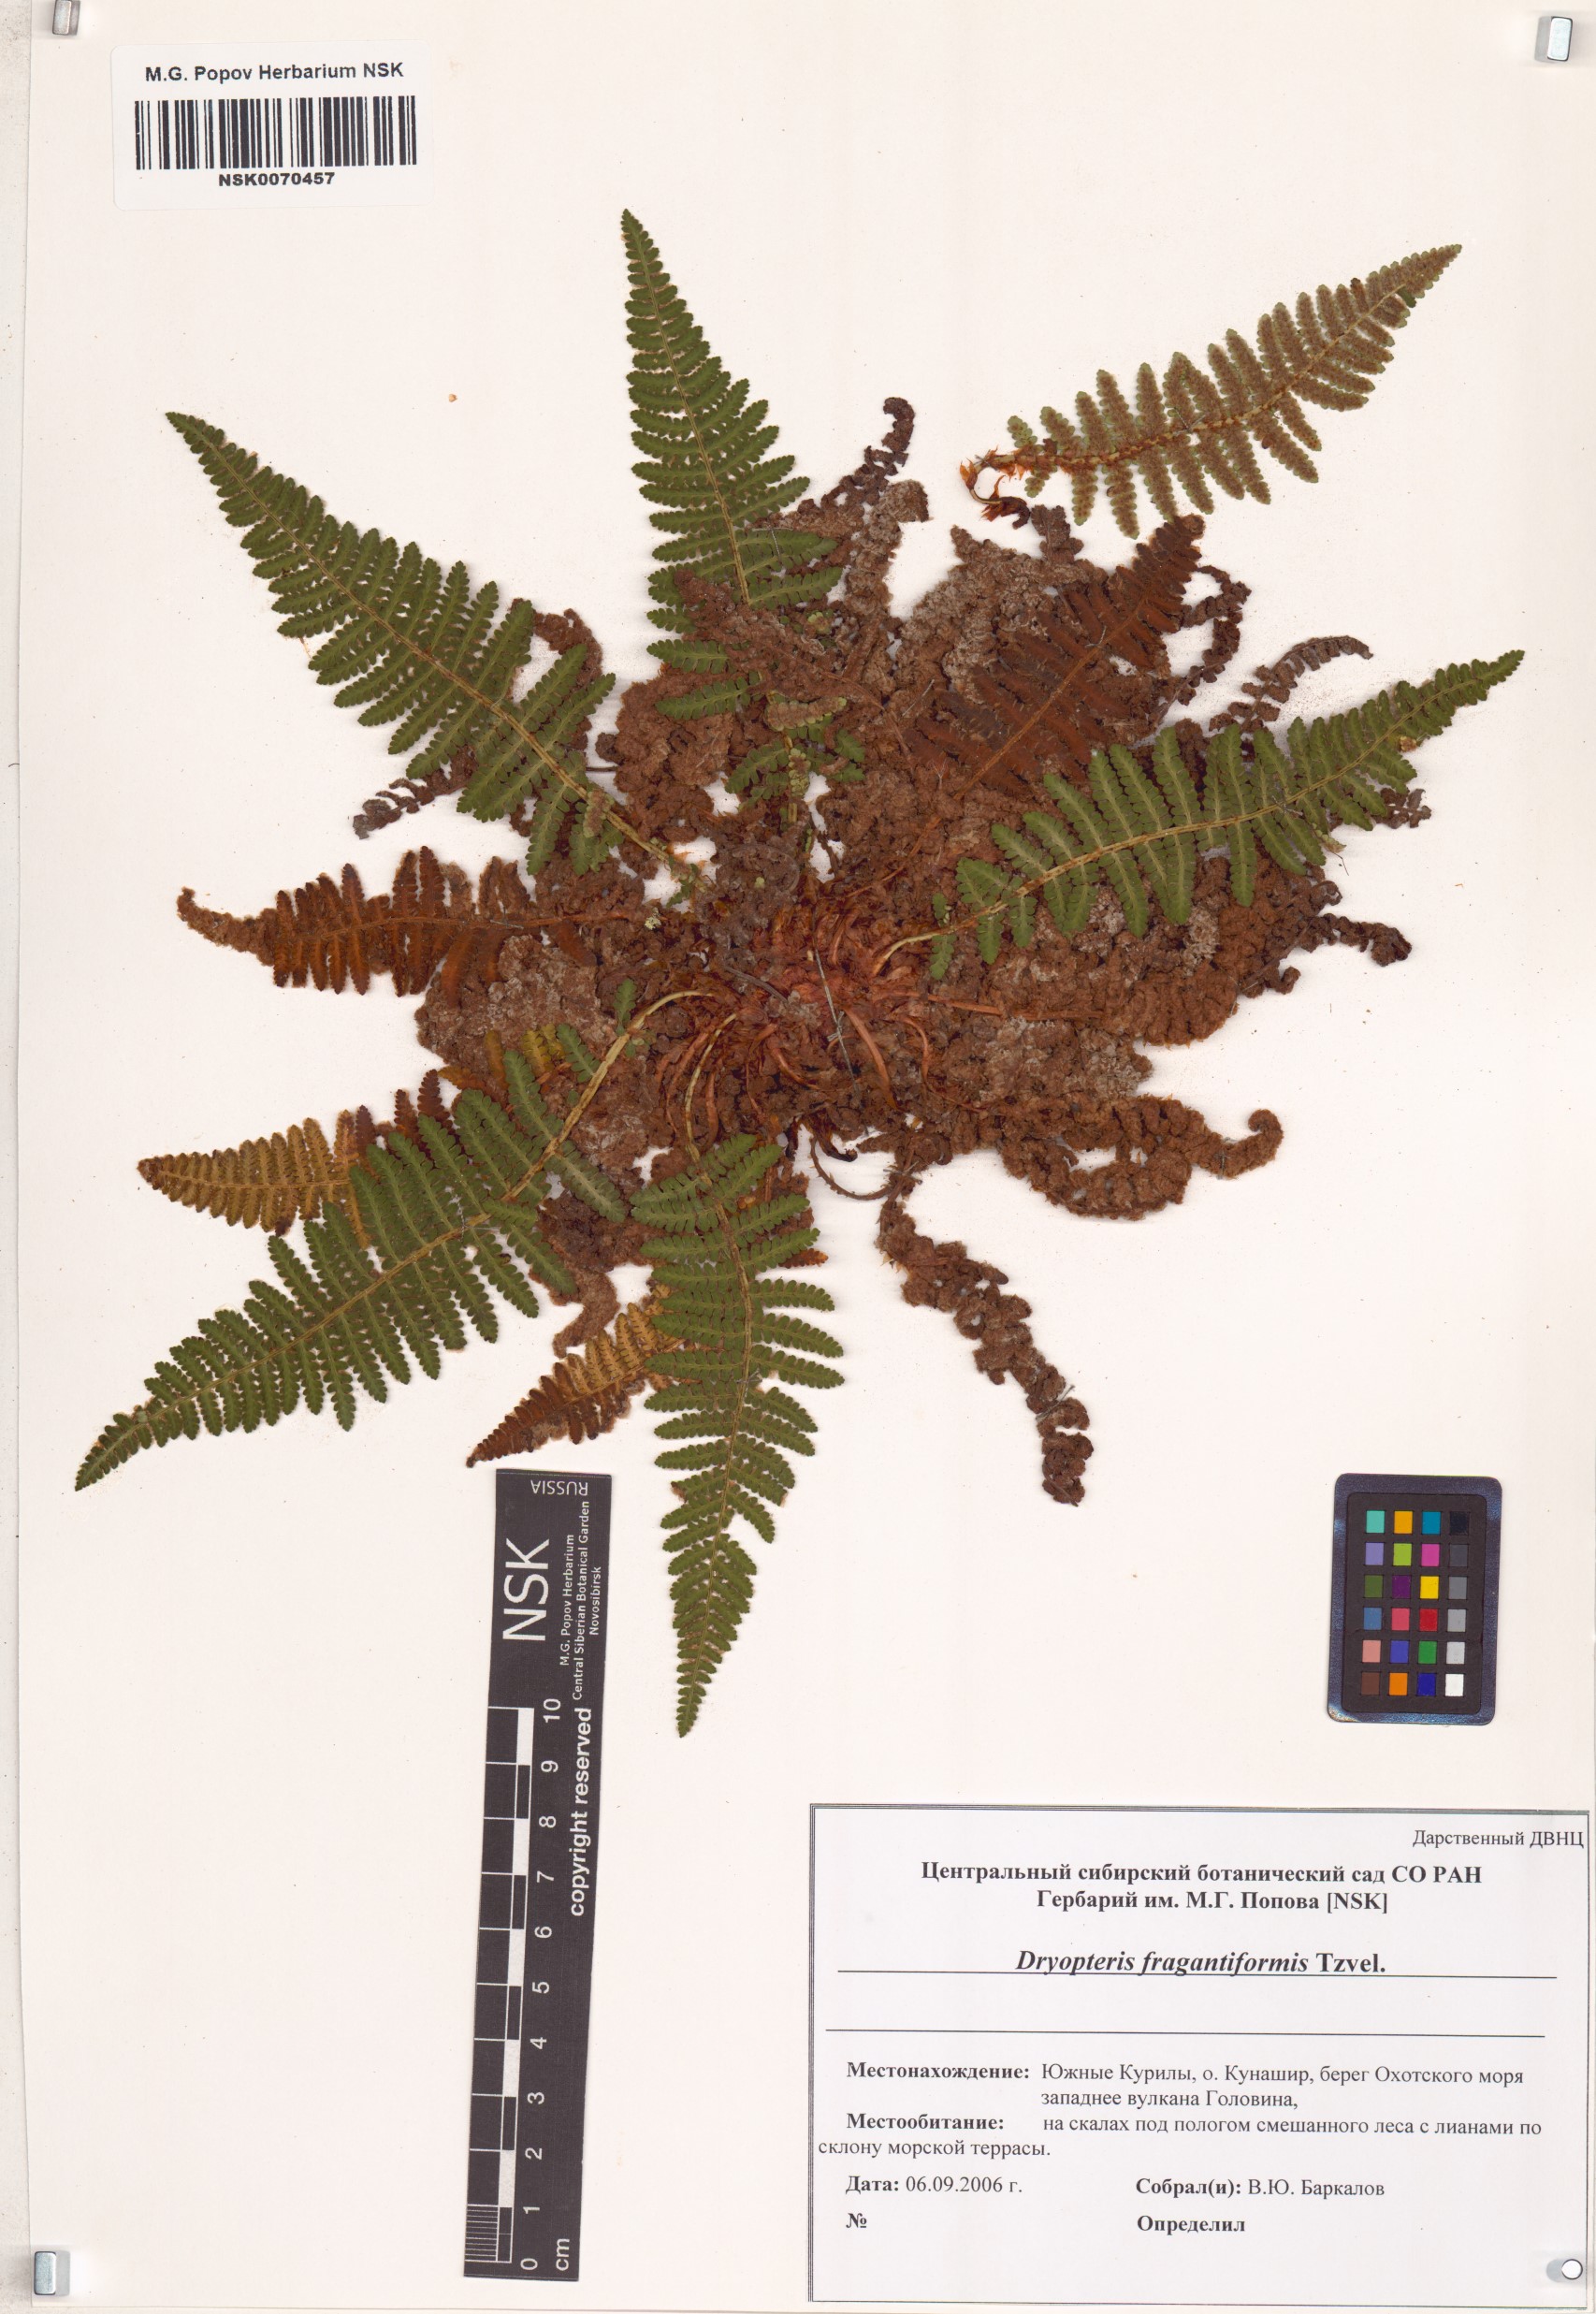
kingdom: Plantae
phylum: Tracheophyta
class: Polypodiopsida
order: Polypodiales
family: Dryopteridaceae
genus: Dryopteris
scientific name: Dryopteris fragrantiformis
